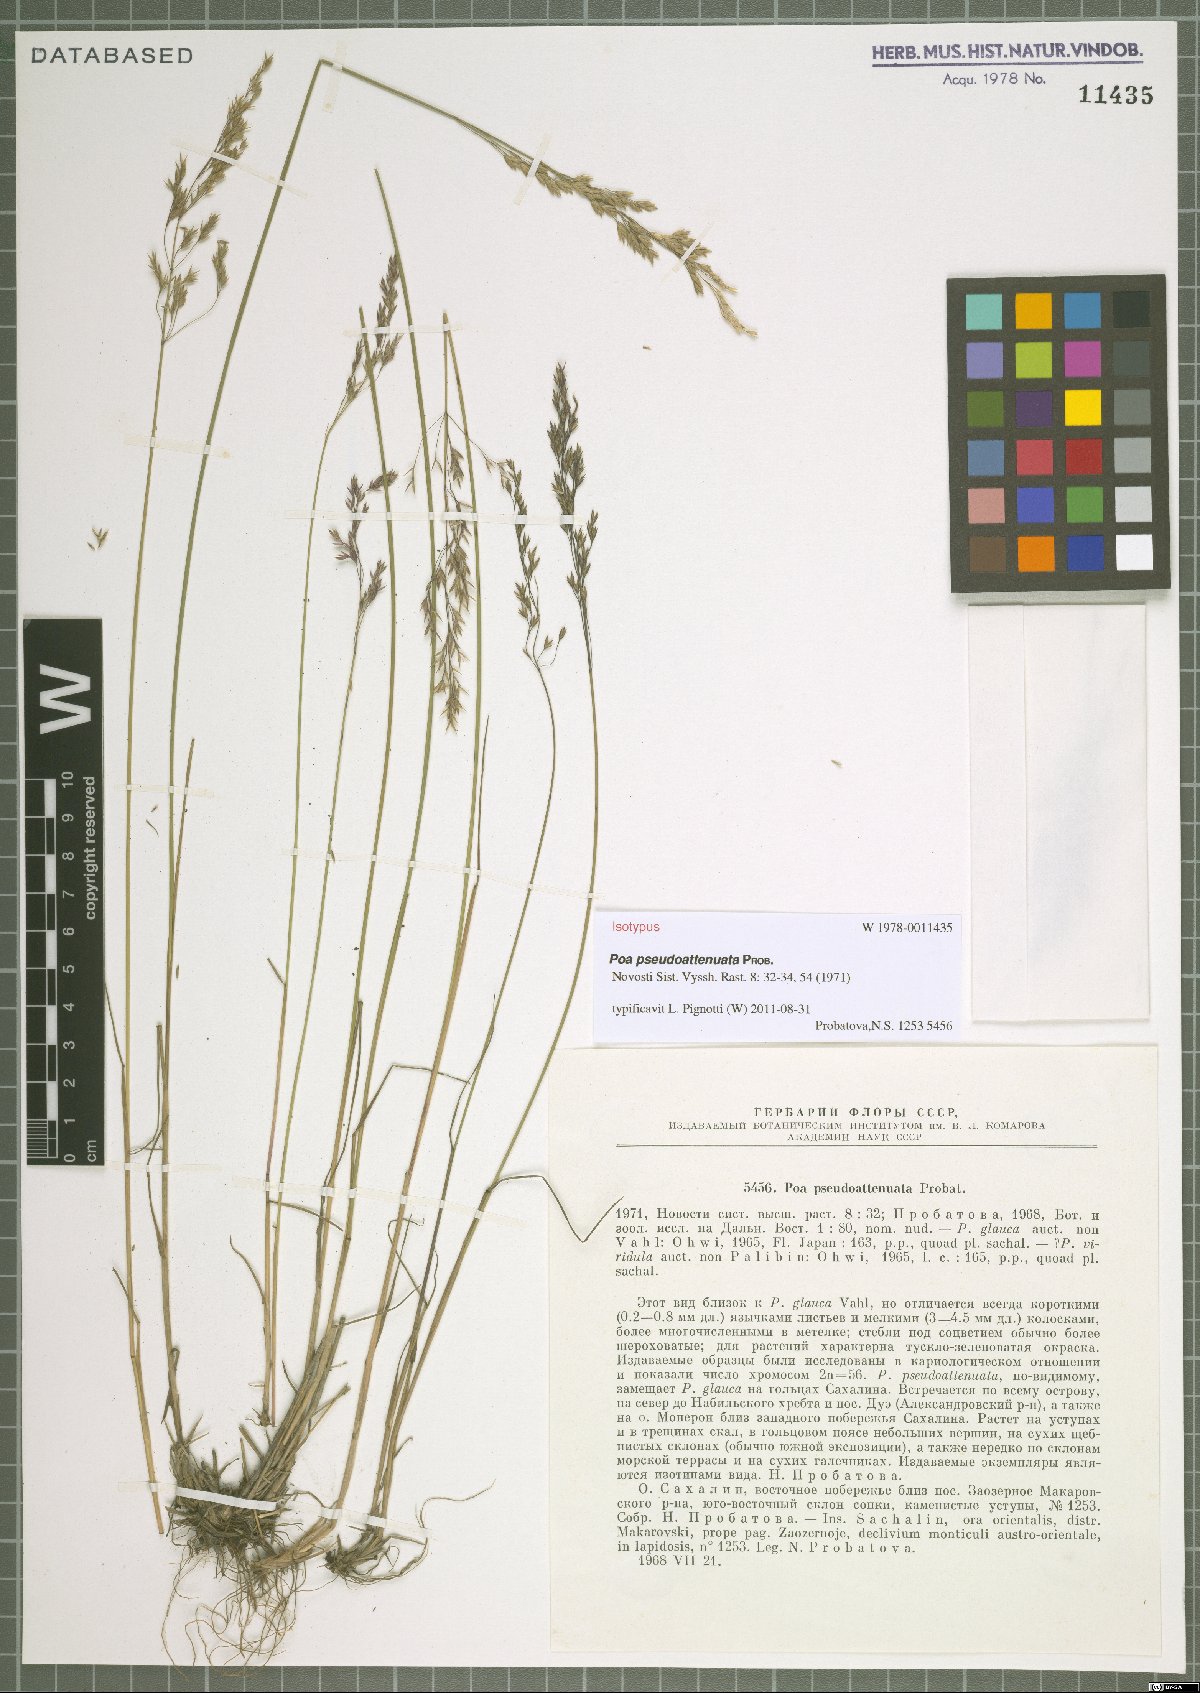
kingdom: Plantae
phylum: Tracheophyta
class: Liliopsida
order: Poales
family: Poaceae
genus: Poa
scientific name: Poa pseudoattenuata
